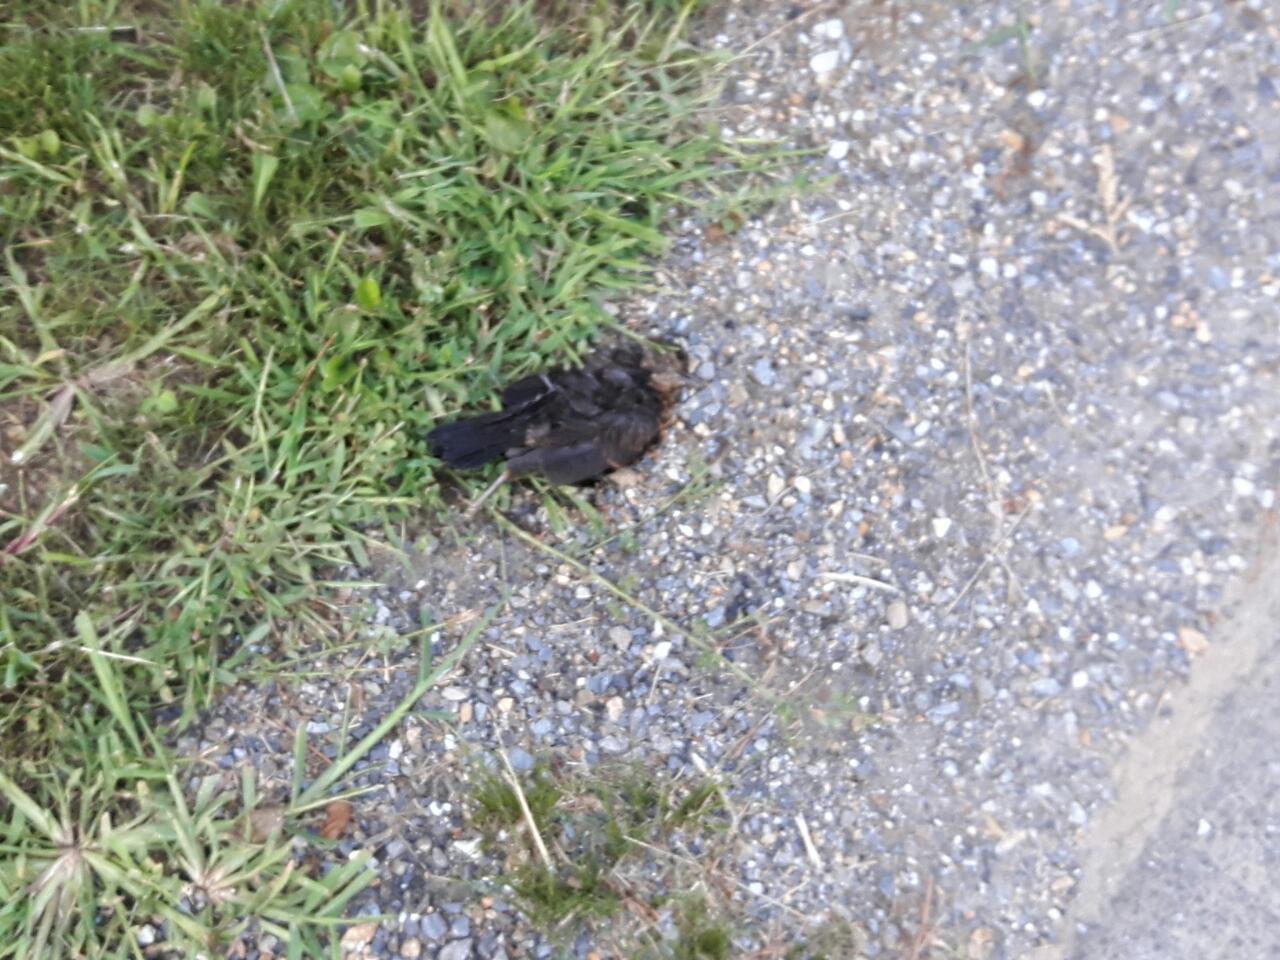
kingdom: Animalia
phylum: Chordata
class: Aves
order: Passeriformes
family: Turdidae
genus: Turdus
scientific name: Turdus merula
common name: Common blackbird
